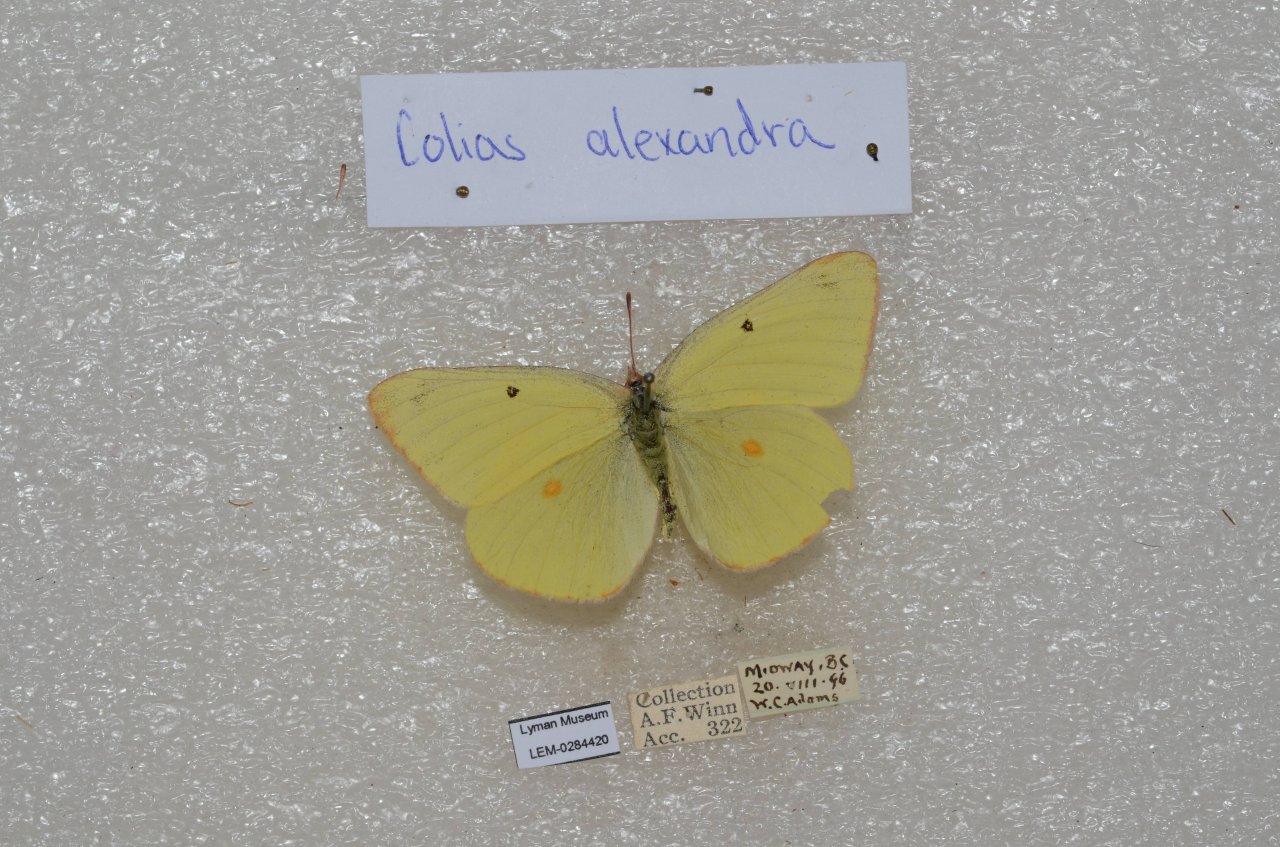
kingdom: Animalia
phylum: Arthropoda
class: Insecta
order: Lepidoptera
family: Pieridae
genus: Colias
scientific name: Colias alexandra
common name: Queen Alexandra's Sulphur
